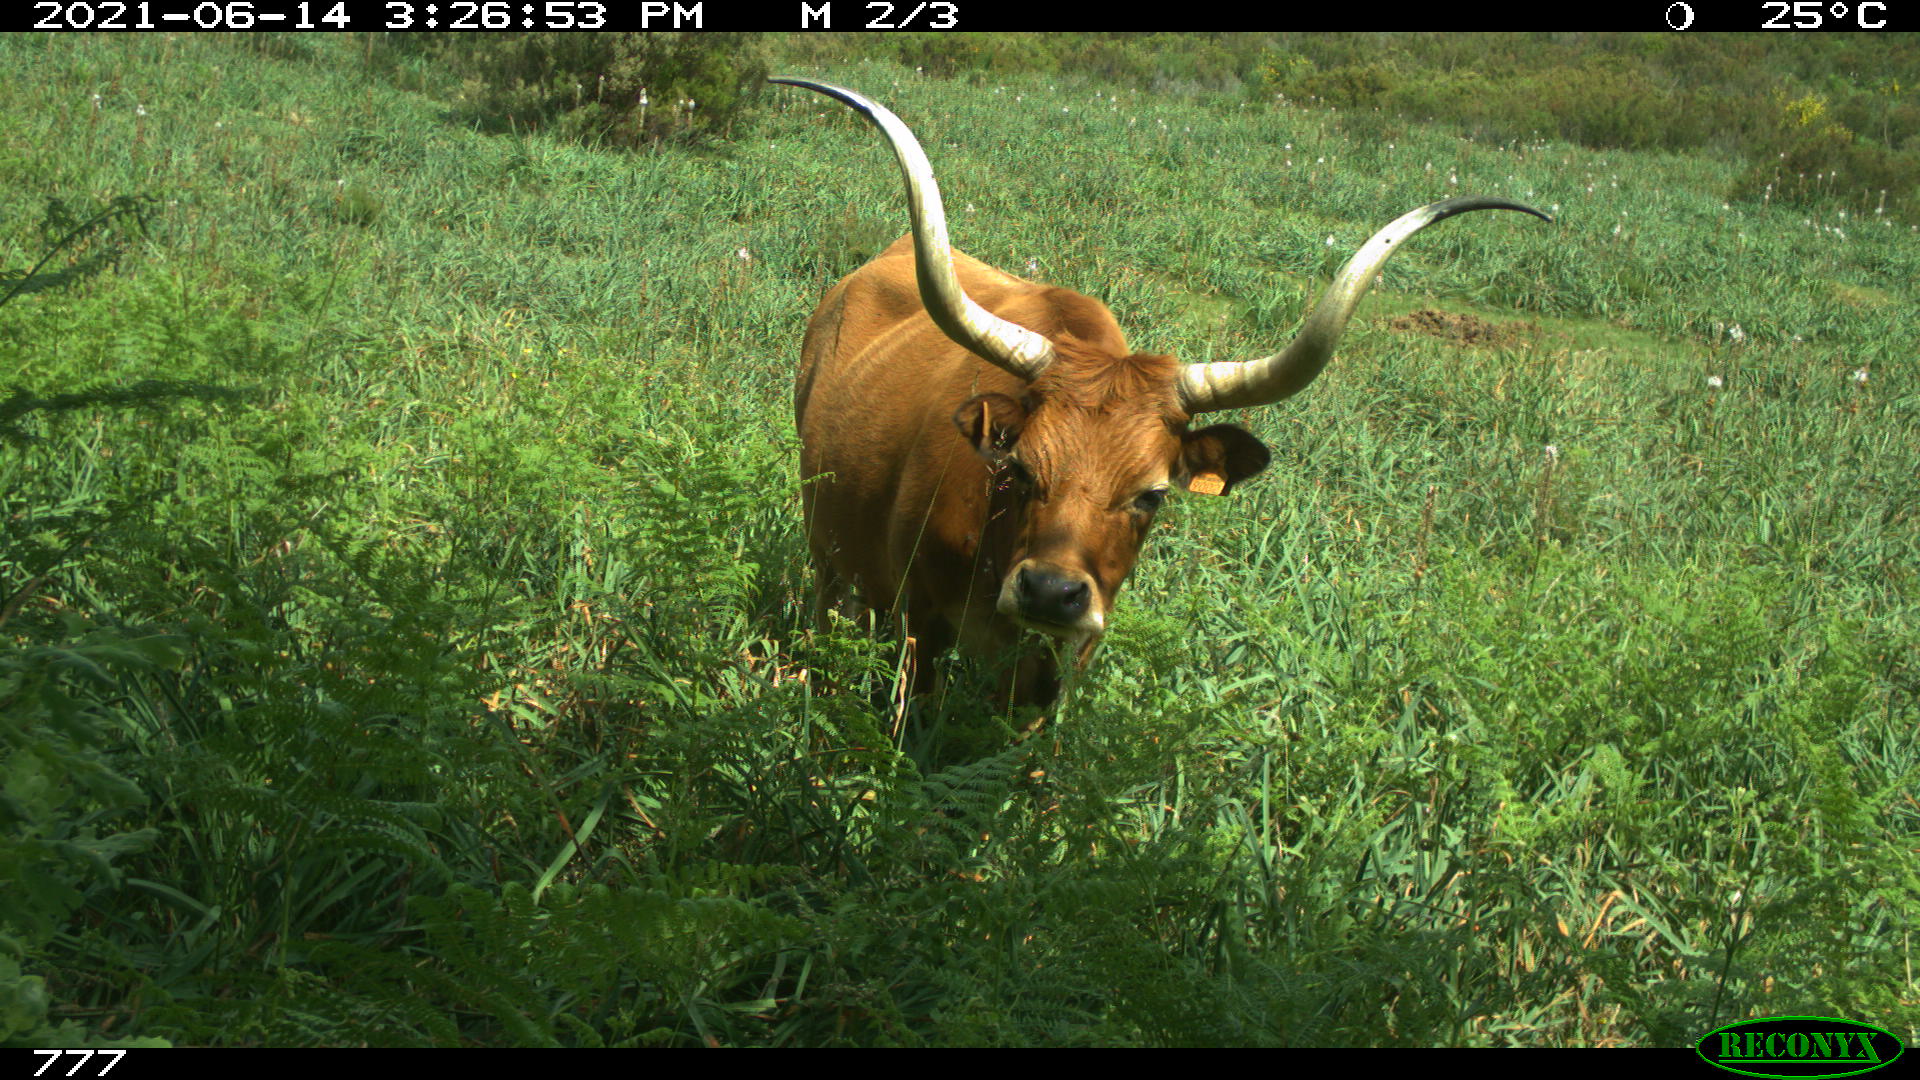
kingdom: Animalia
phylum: Chordata
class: Mammalia
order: Artiodactyla
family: Bovidae
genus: Bos
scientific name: Bos taurus
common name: Domesticated cattle
